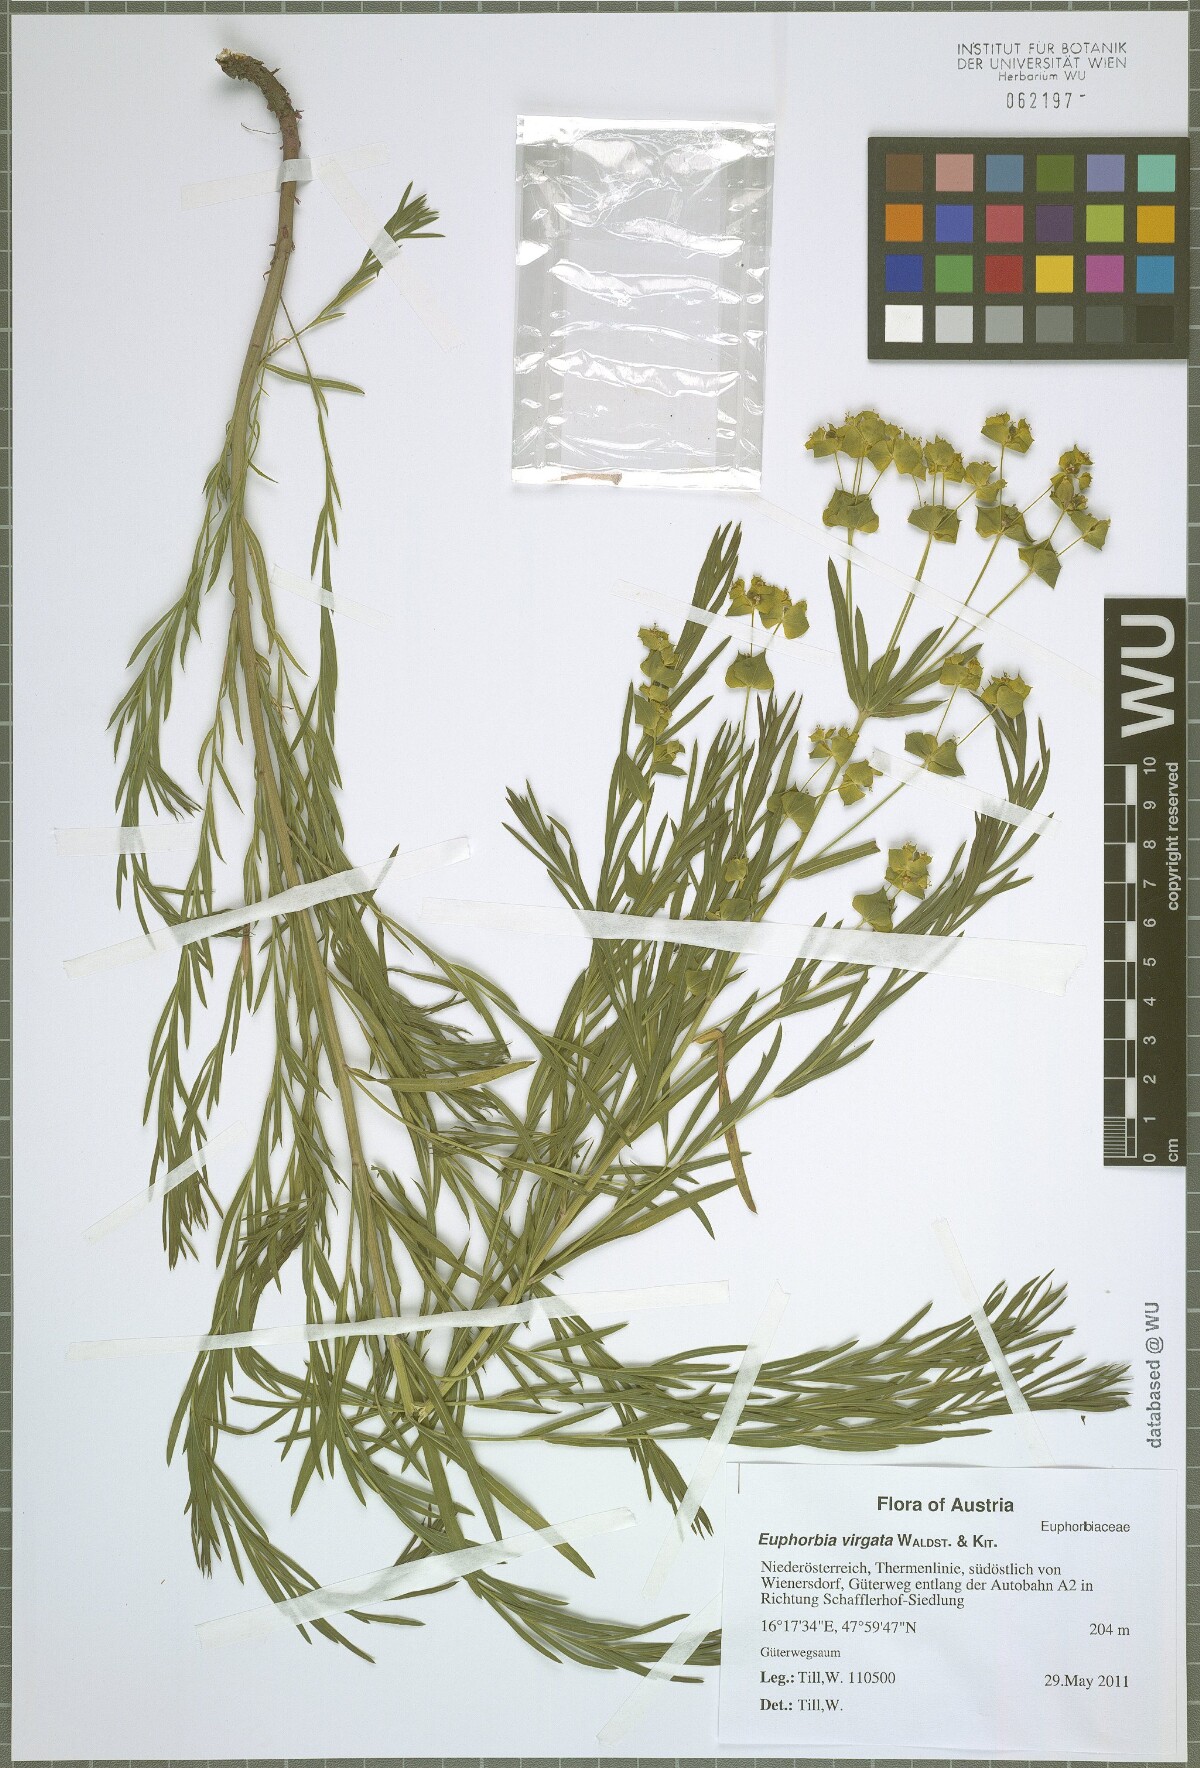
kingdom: Plantae
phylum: Tracheophyta
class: Magnoliopsida
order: Malpighiales
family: Euphorbiaceae
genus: Euphorbia
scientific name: Euphorbia virgata
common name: Leafy spurge
